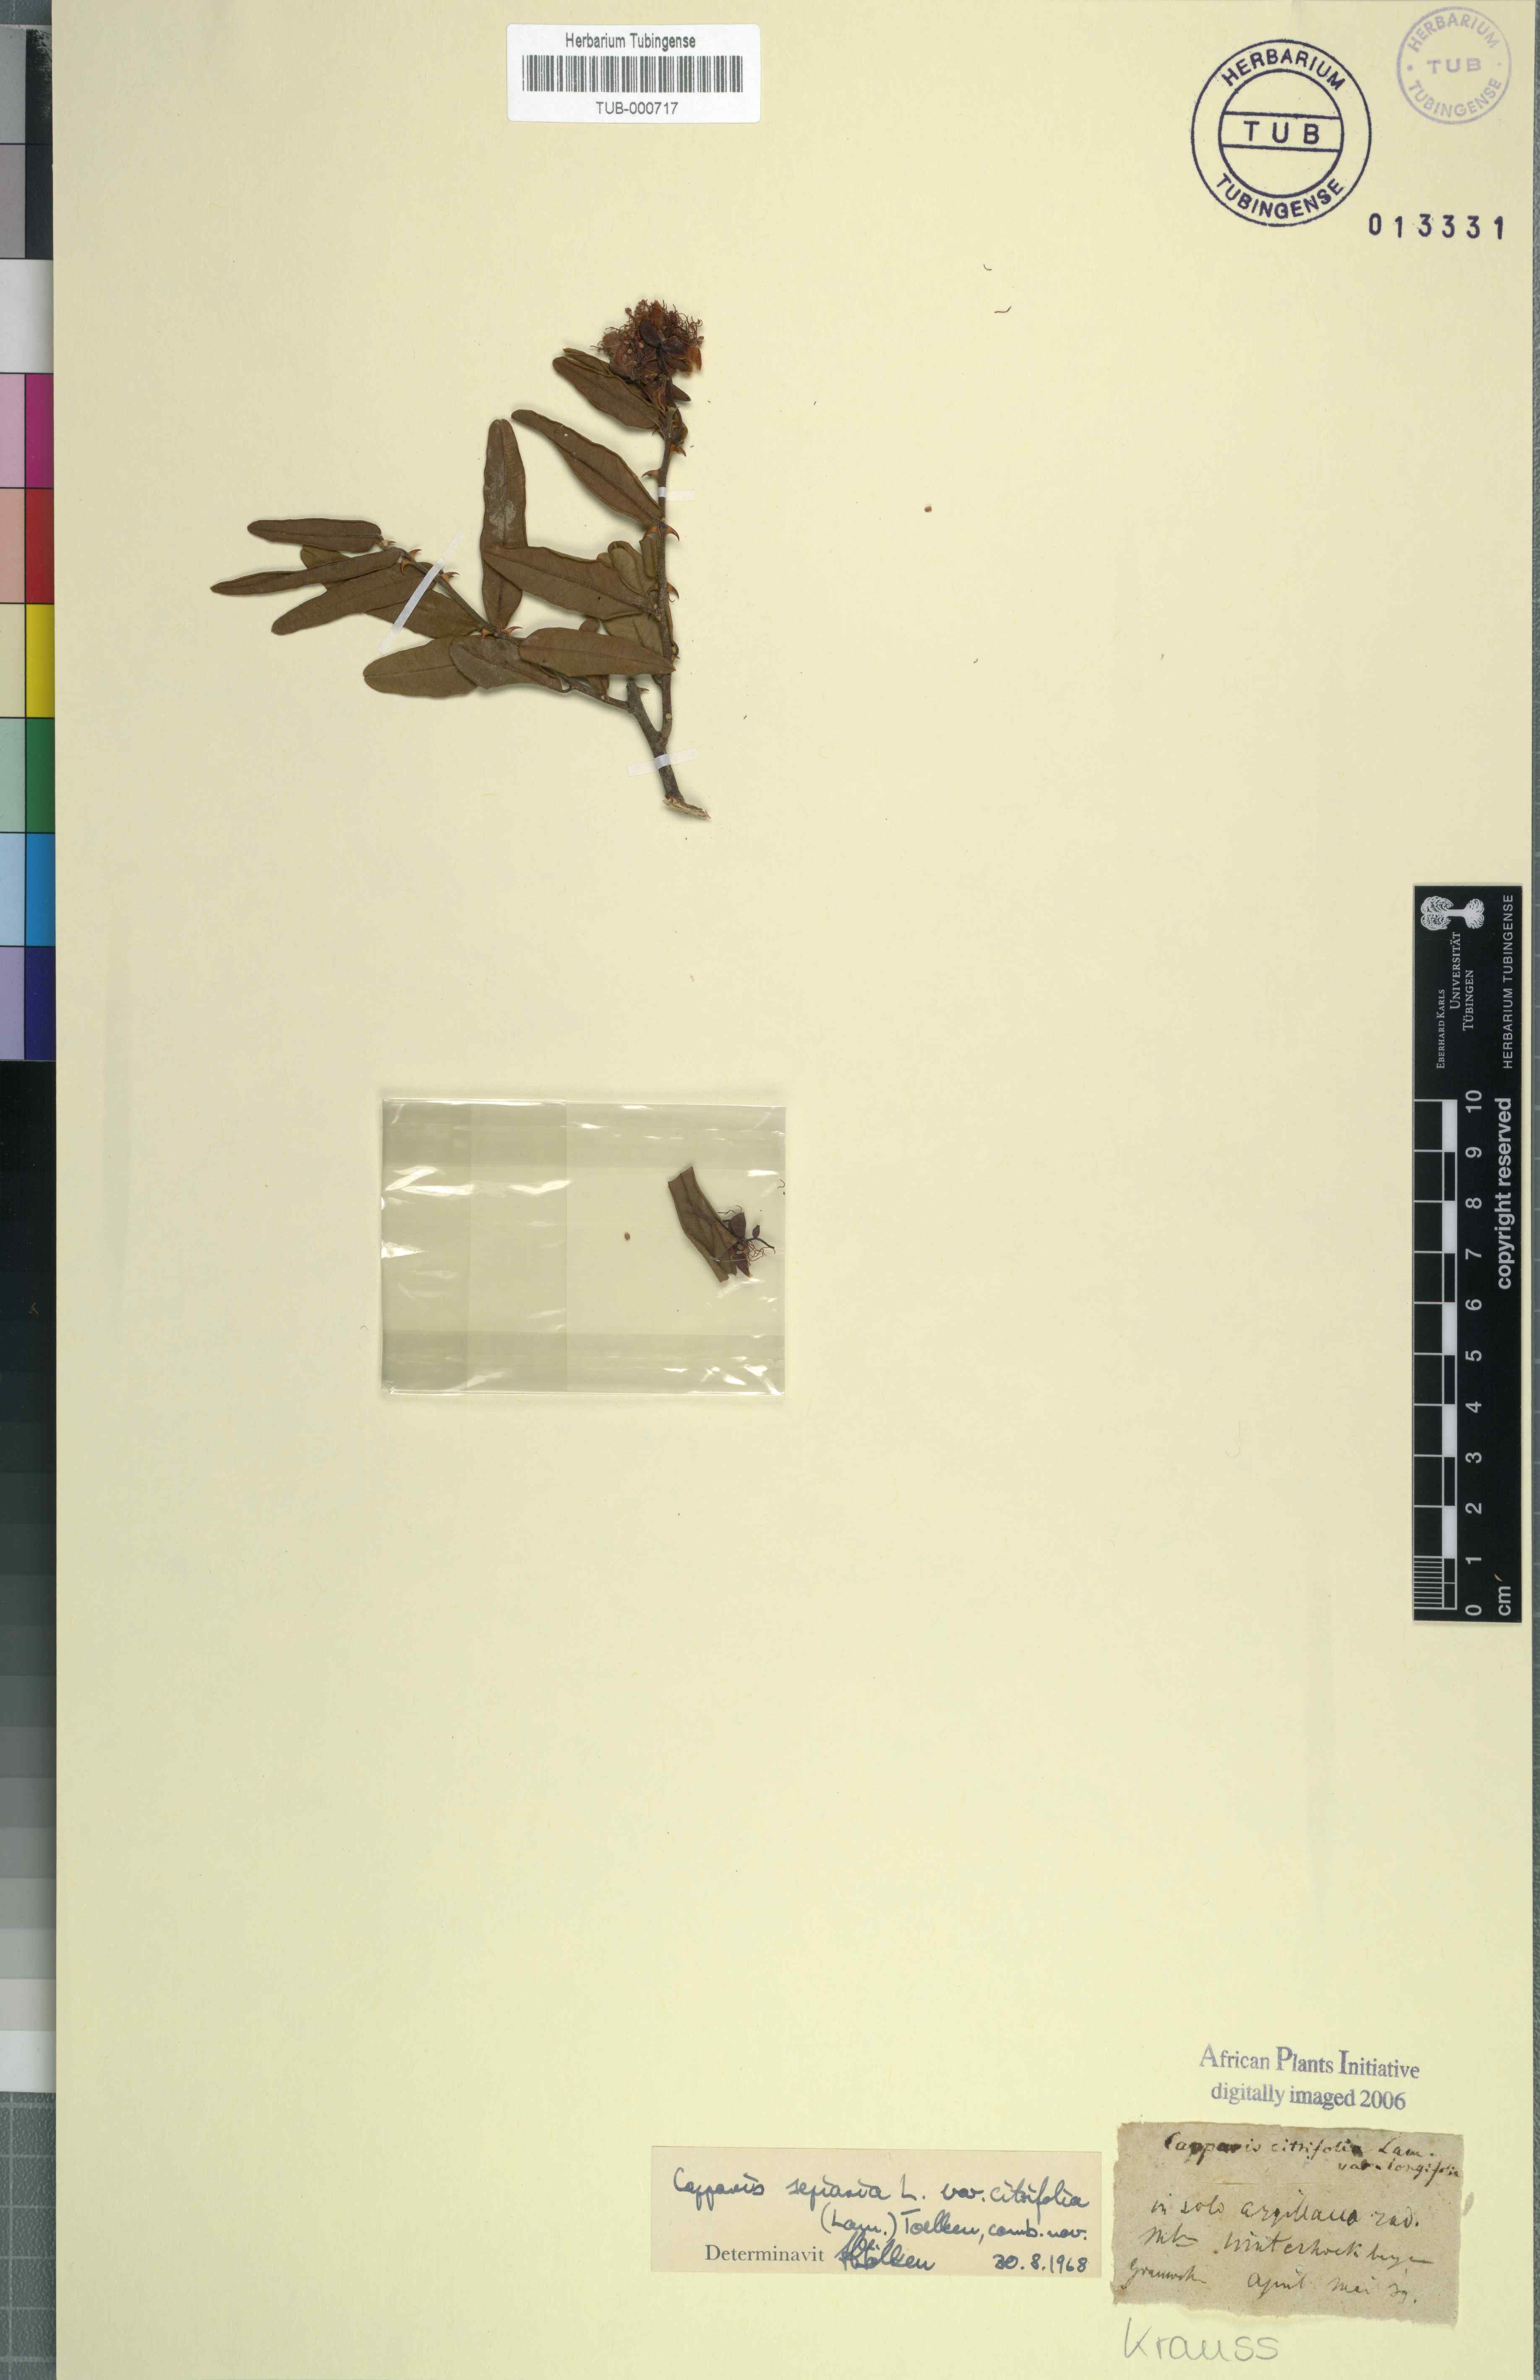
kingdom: Plantae
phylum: Tracheophyta
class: Magnoliopsida
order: Brassicales
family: Capparaceae
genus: Capparis
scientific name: Capparis sepiaria
